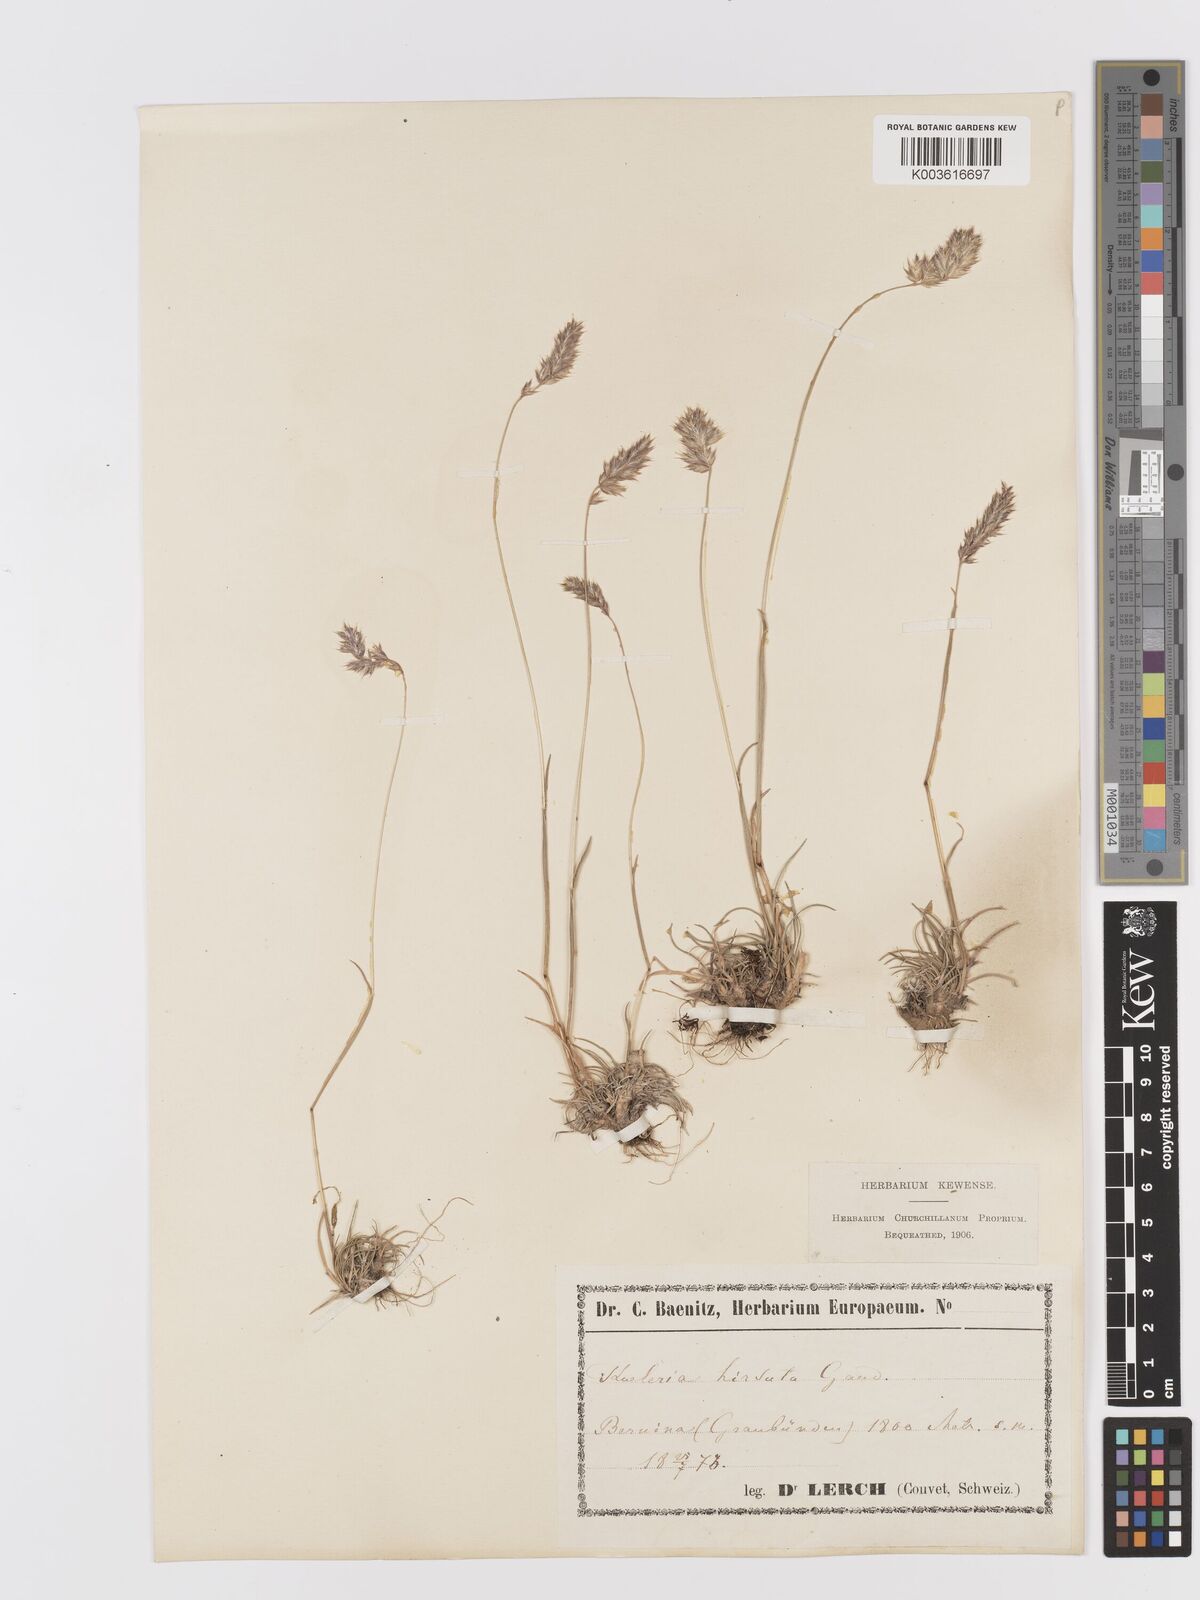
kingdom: Plantae
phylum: Tracheophyta
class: Liliopsida
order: Poales
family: Poaceae
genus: Koeleria
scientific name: Koeleria hirsuta
